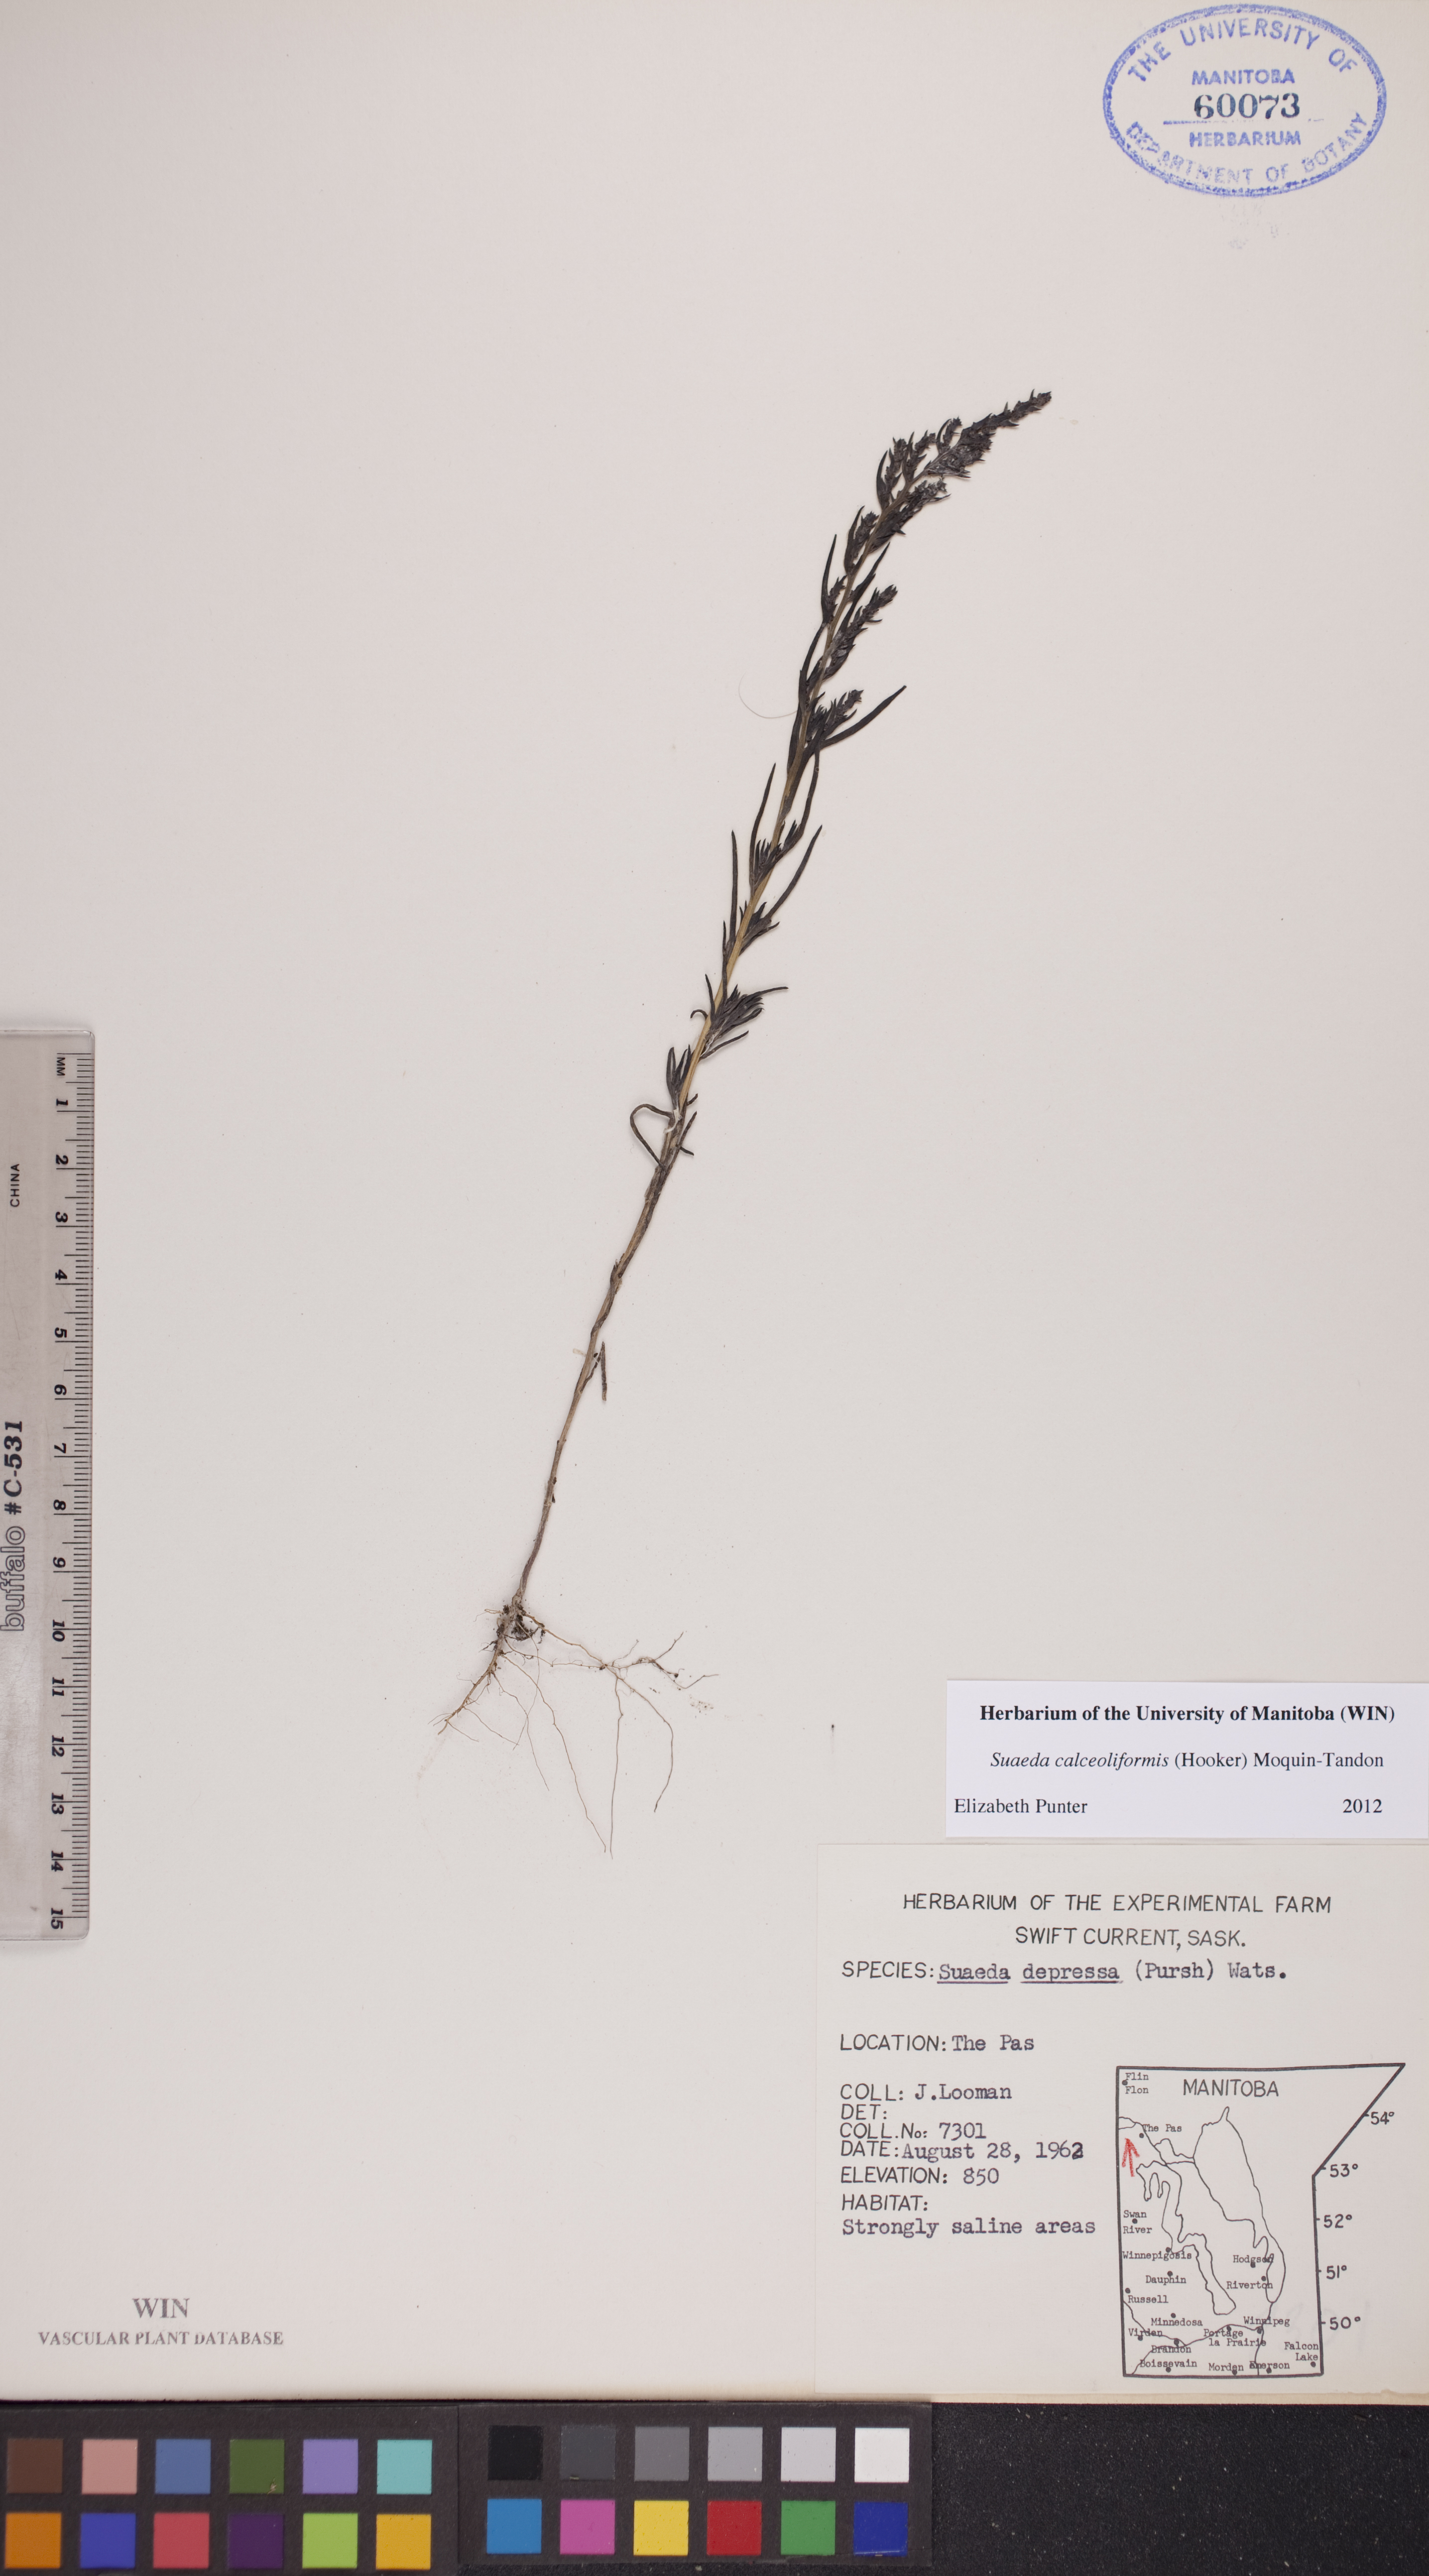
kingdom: Plantae
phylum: Tracheophyta
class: Magnoliopsida
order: Caryophyllales
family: Amaranthaceae
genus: Suaeda
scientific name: Suaeda calceoliformis
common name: Pursh's seepweed
